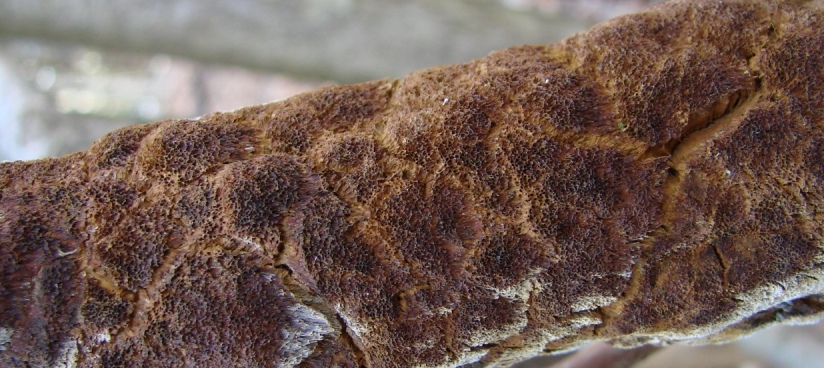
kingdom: Fungi
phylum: Basidiomycota
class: Agaricomycetes
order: Hymenochaetales
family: Hymenochaetaceae
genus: Fuscoporia
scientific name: Fuscoporia ferrea
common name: skorpe-ildporesvamp
